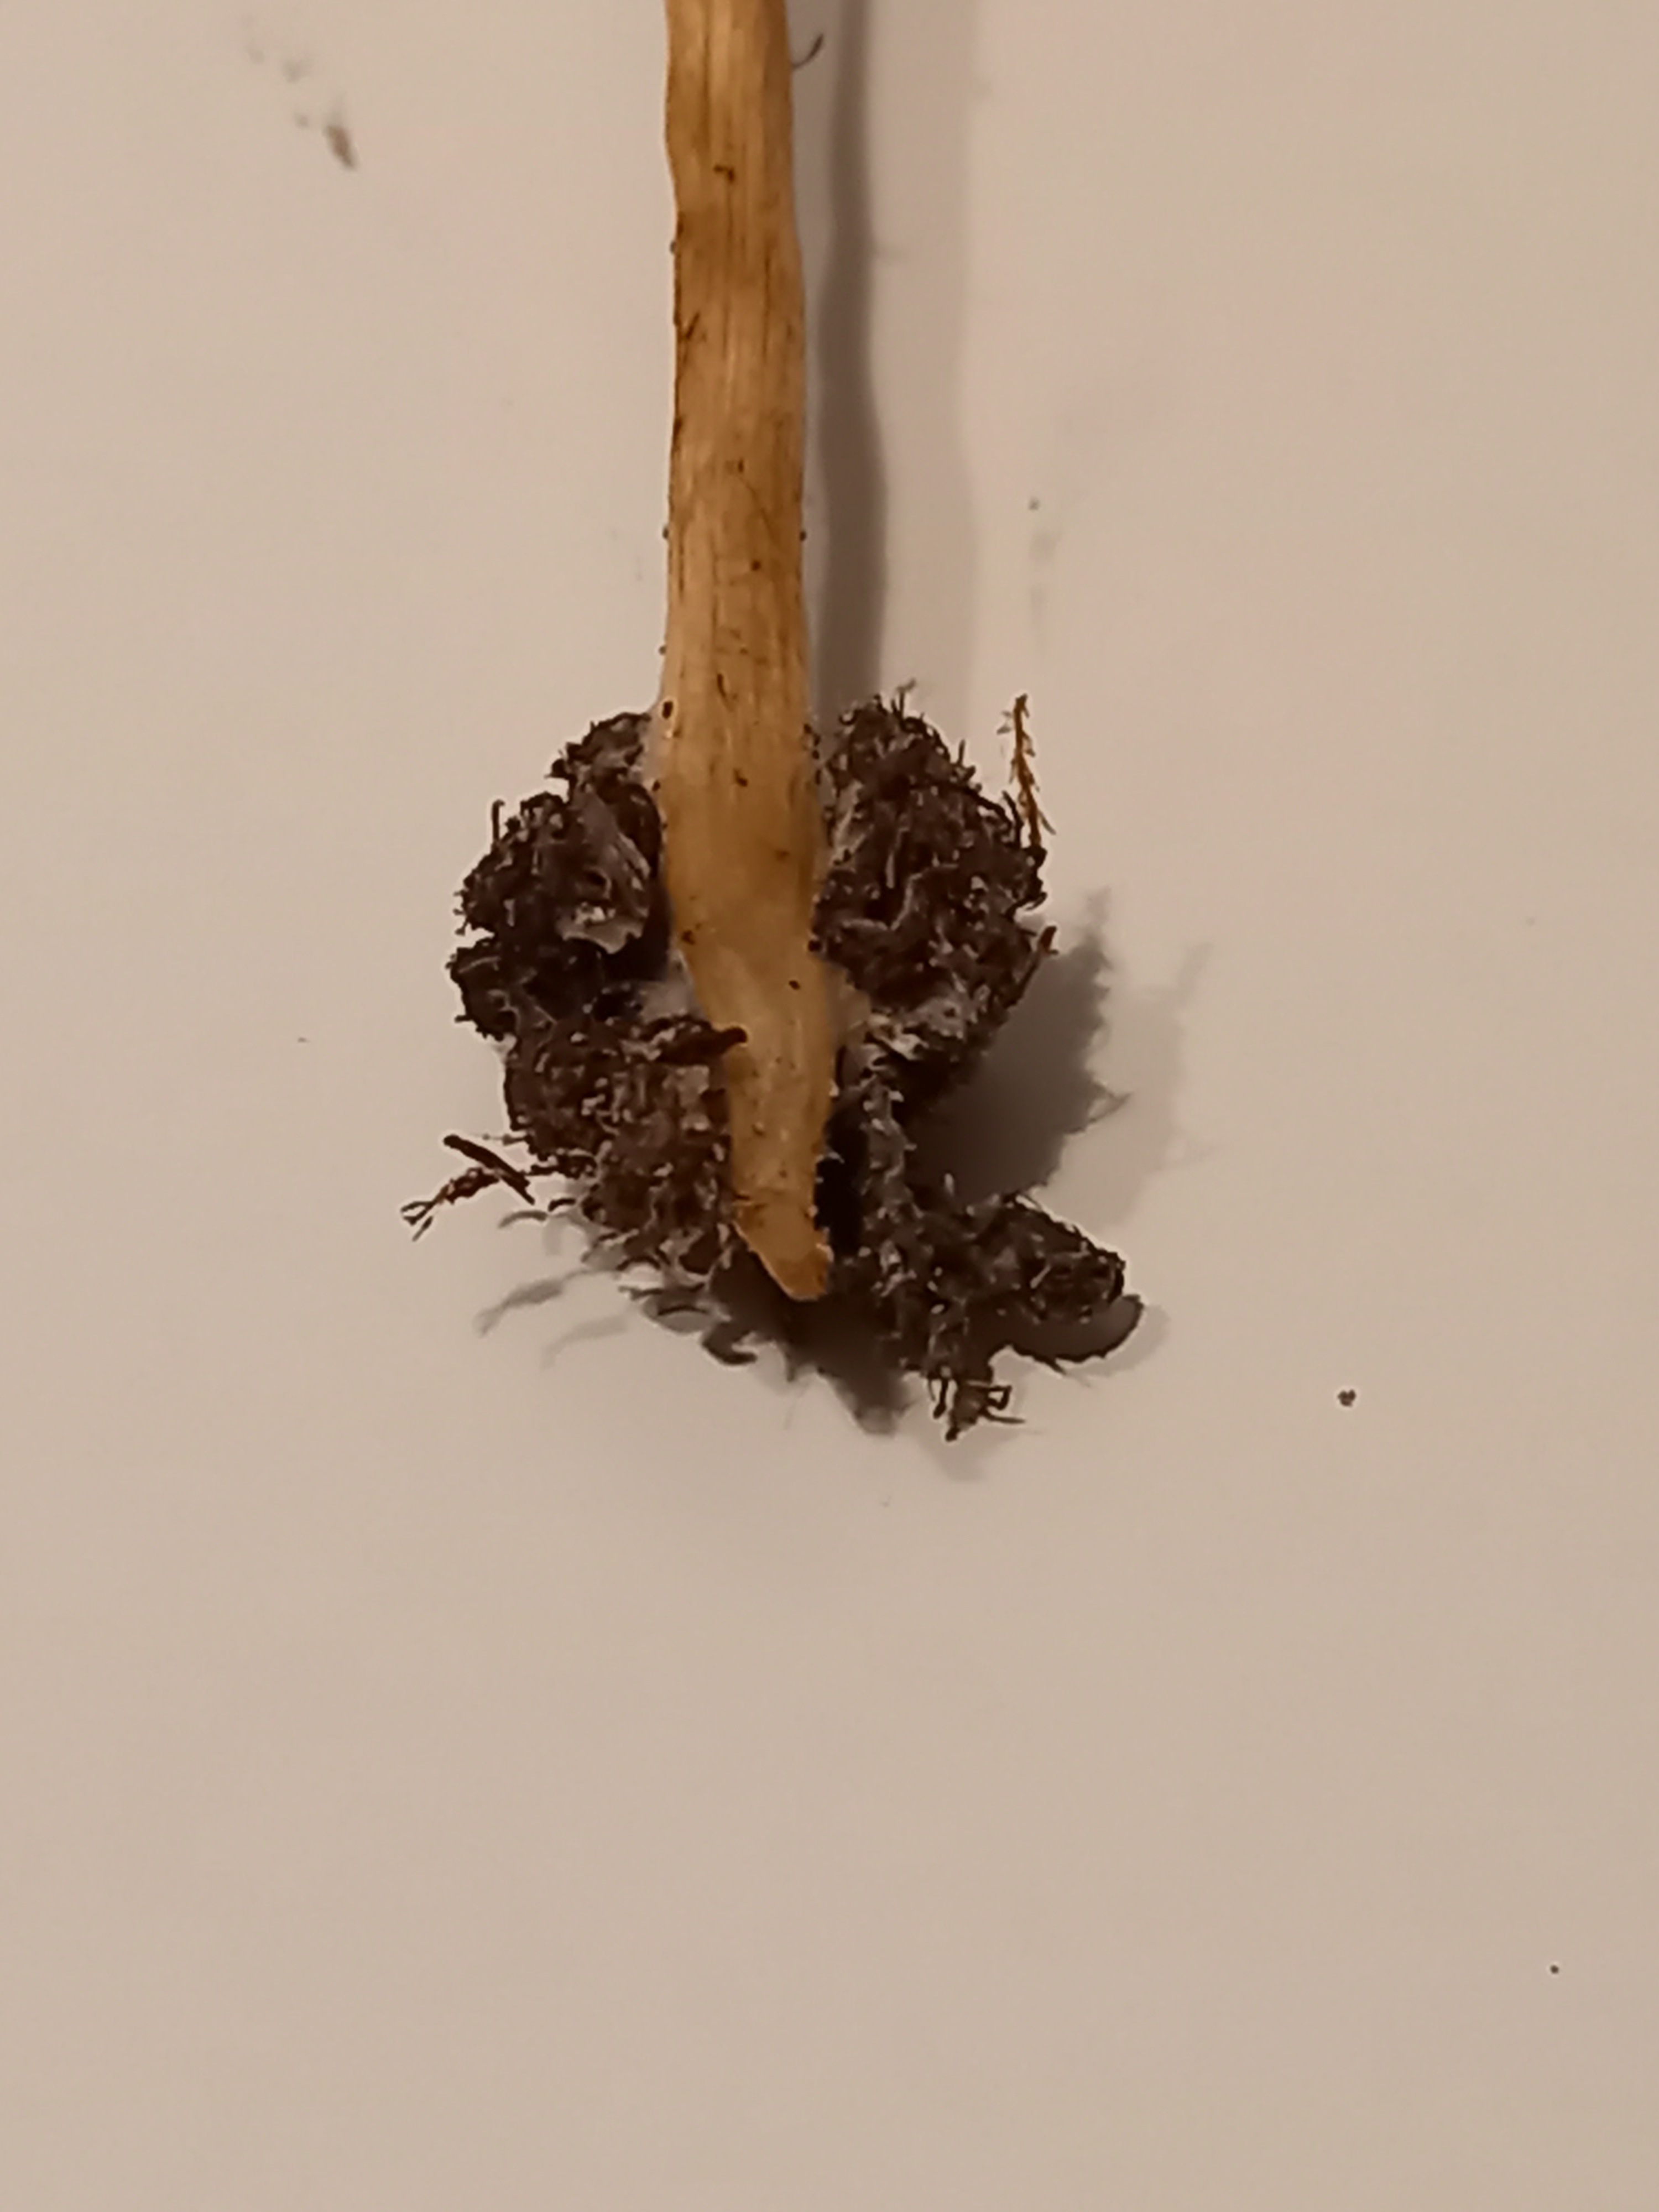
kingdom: Fungi
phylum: Basidiomycota
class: Agaricomycetes
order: Agaricales
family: Strophariaceae
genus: Agrocybe
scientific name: Agrocybe arvalis
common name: rodslående agerhat
